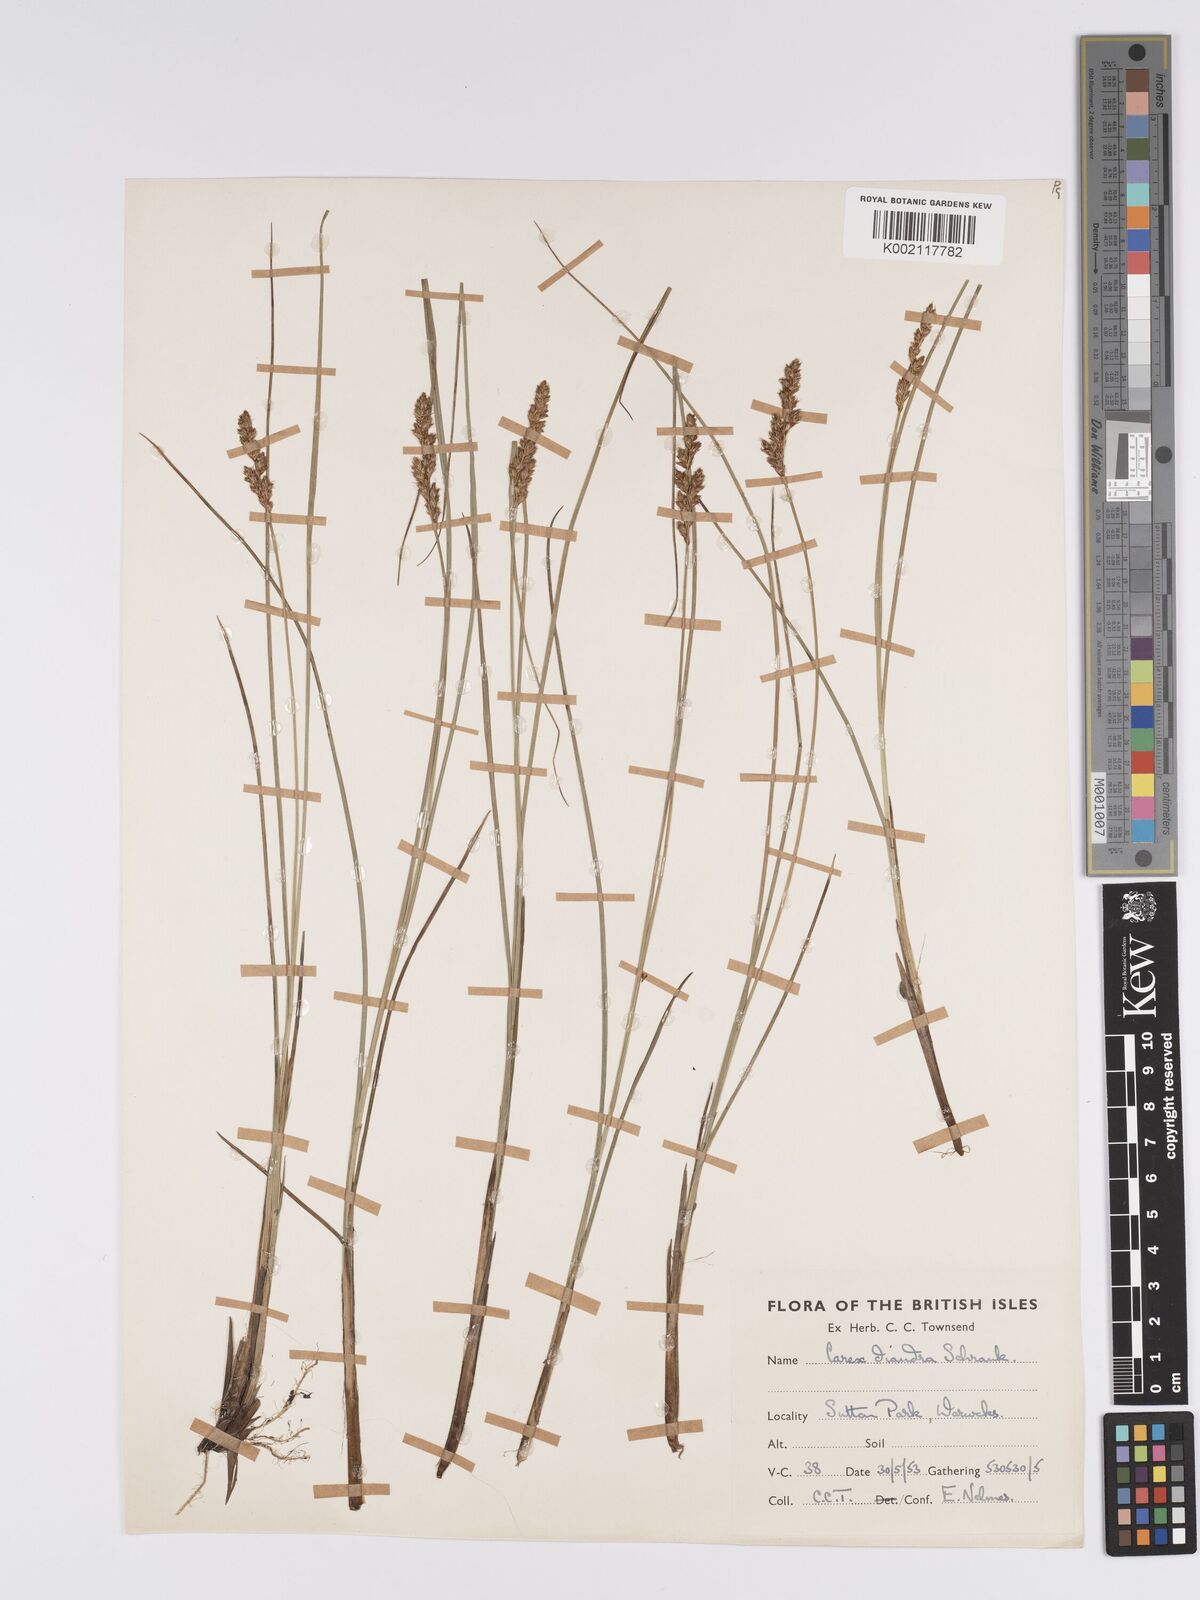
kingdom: Plantae
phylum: Tracheophyta
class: Liliopsida
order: Poales
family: Cyperaceae
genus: Carex
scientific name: Carex diandra
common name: Lesser tussock-sedge
